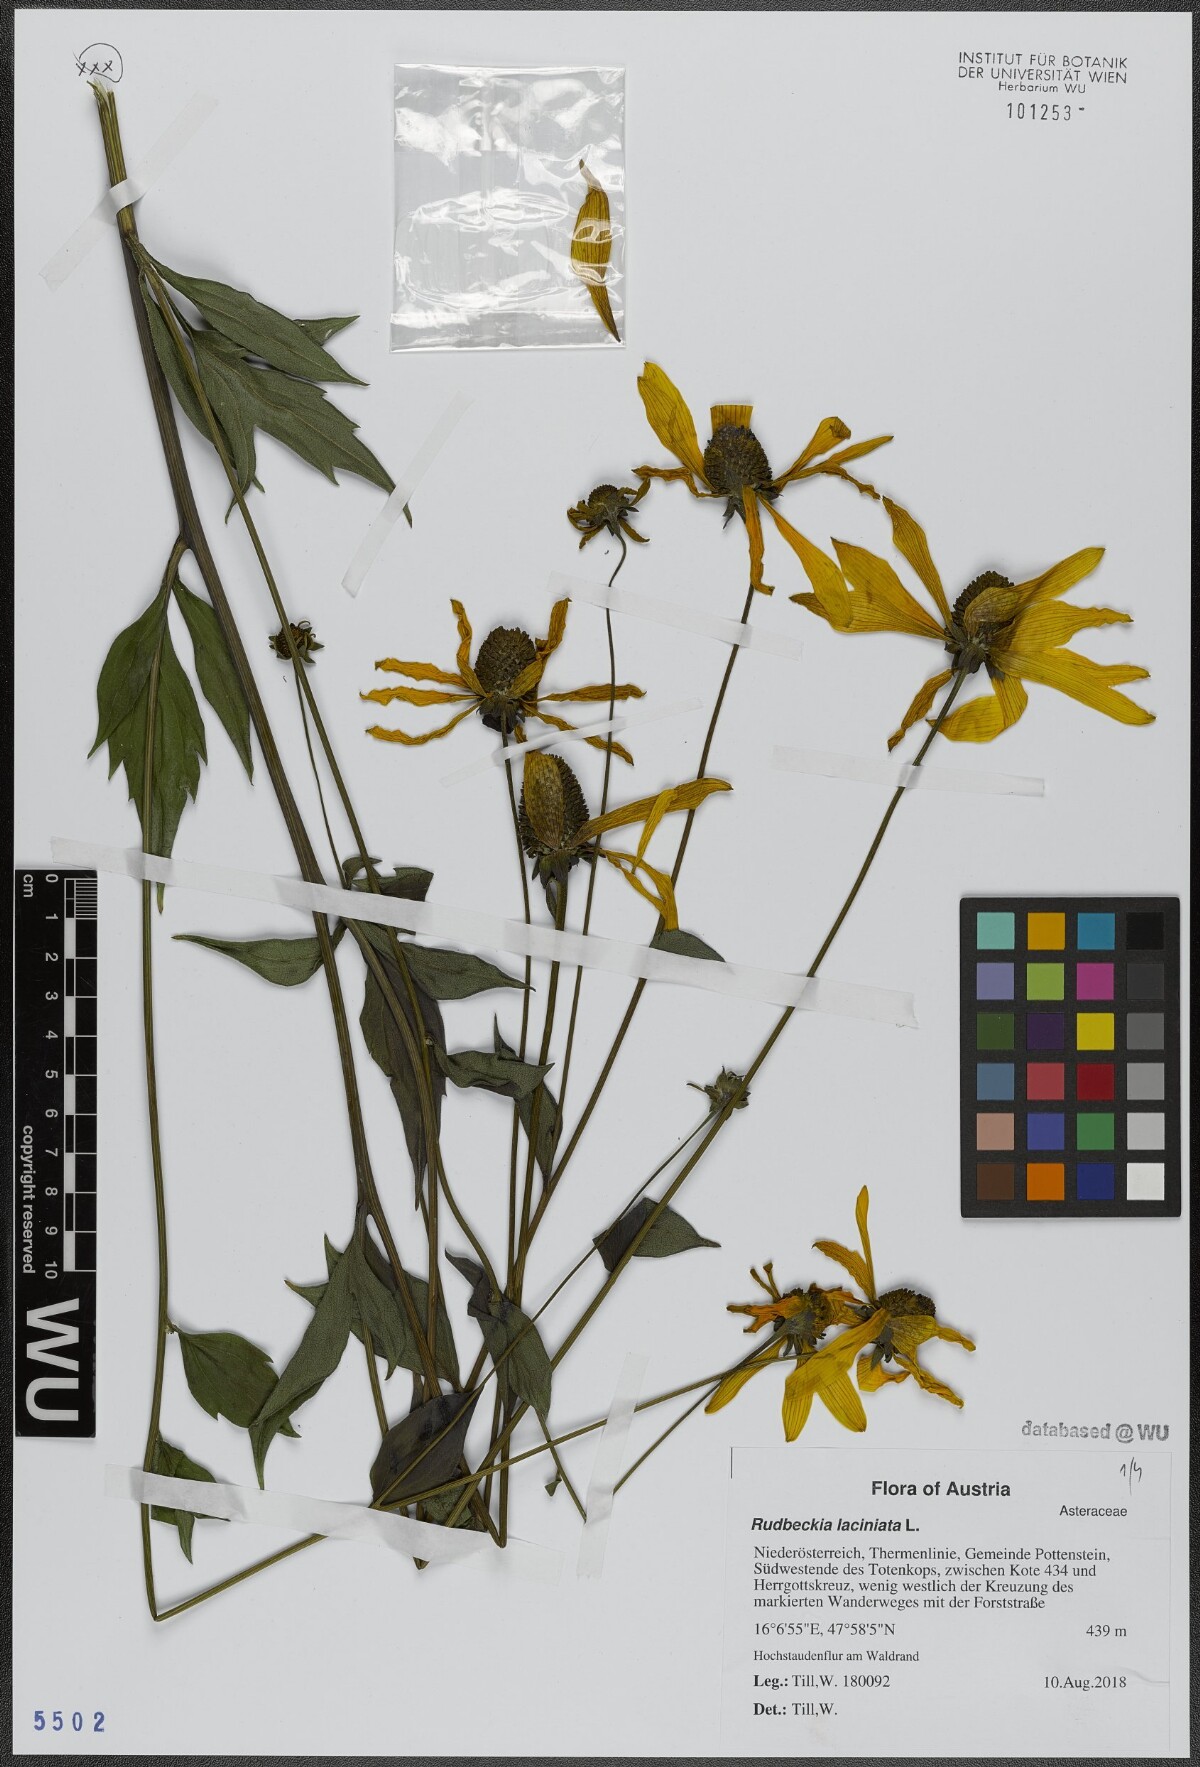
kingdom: Plantae
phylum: Tracheophyta
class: Magnoliopsida
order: Asterales
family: Asteraceae
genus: Rudbeckia
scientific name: Rudbeckia laciniata
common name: Coneflower
